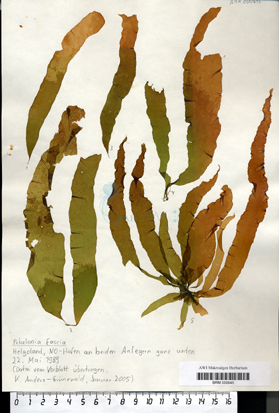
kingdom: Chromista
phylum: Ochrophyta
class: Phaeophyceae
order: Scytosiphonales
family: Scytosiphonaceae
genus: Petalonia
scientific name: Petalonia fascia
